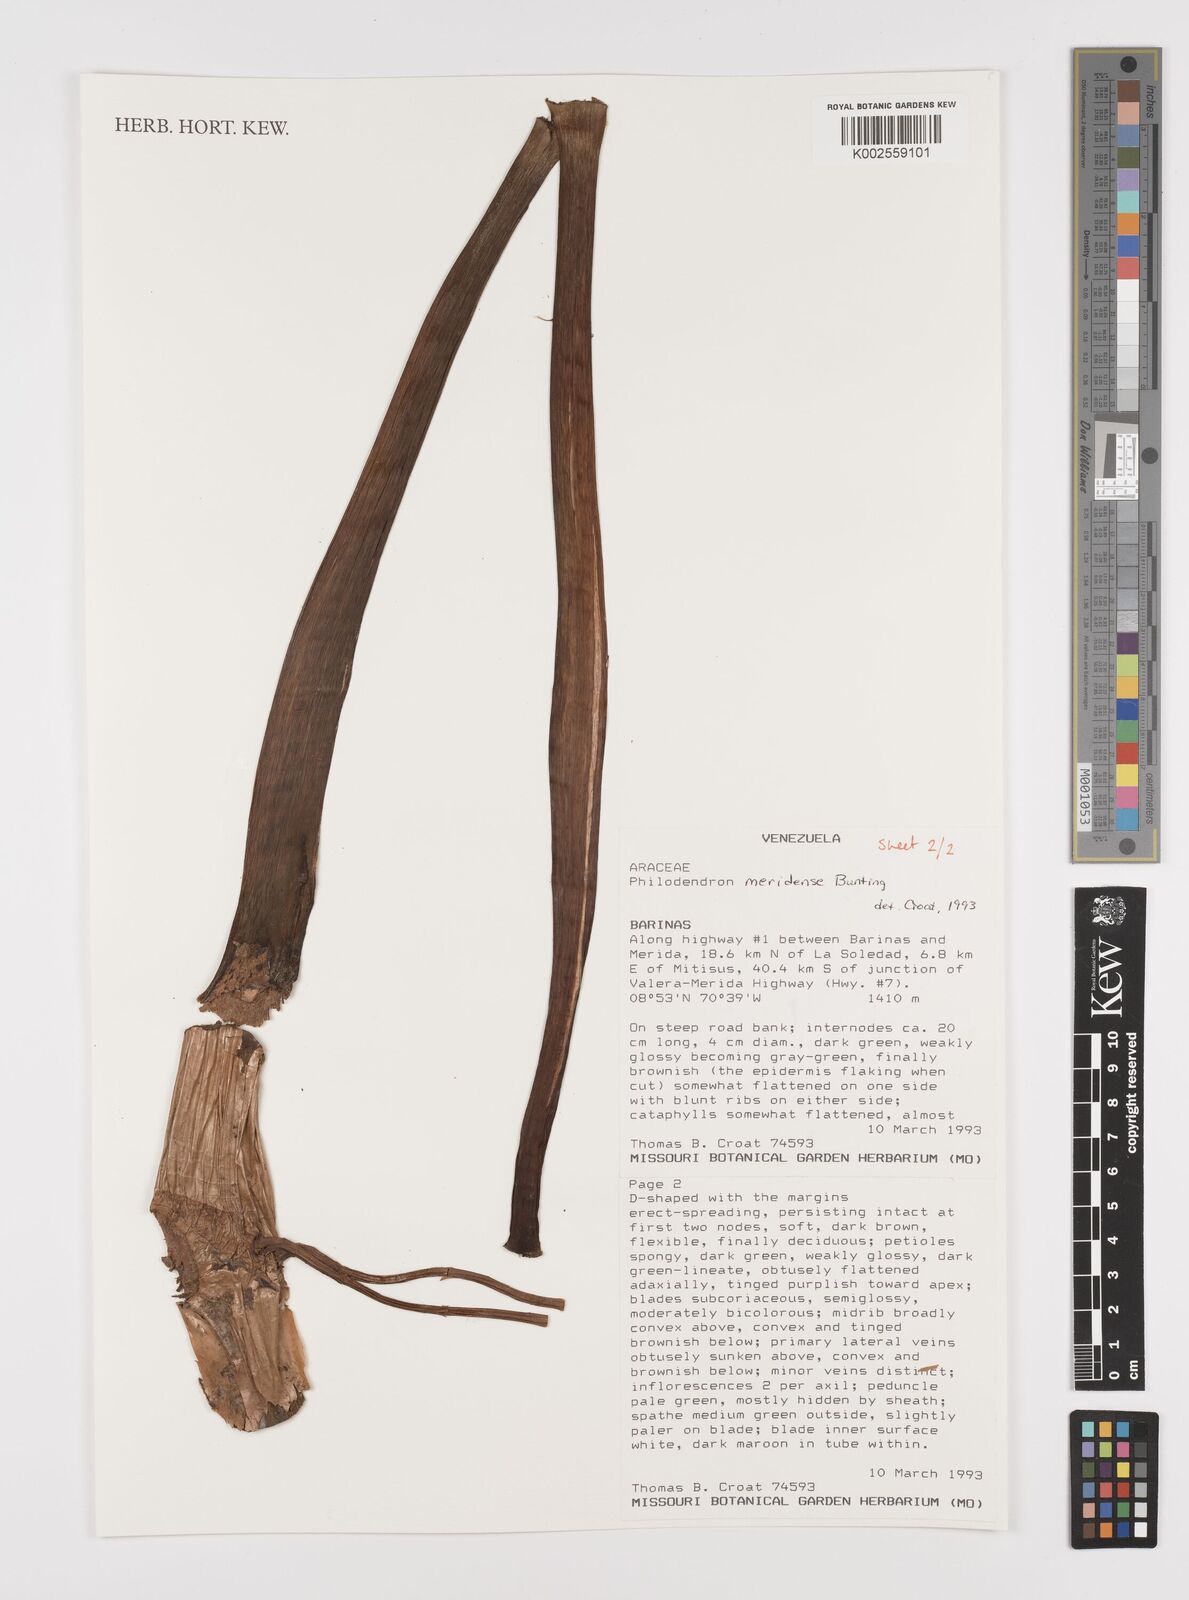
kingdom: Plantae
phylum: Tracheophyta
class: Liliopsida
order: Alismatales
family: Araceae
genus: Philodendron
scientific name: Philodendron meridense
